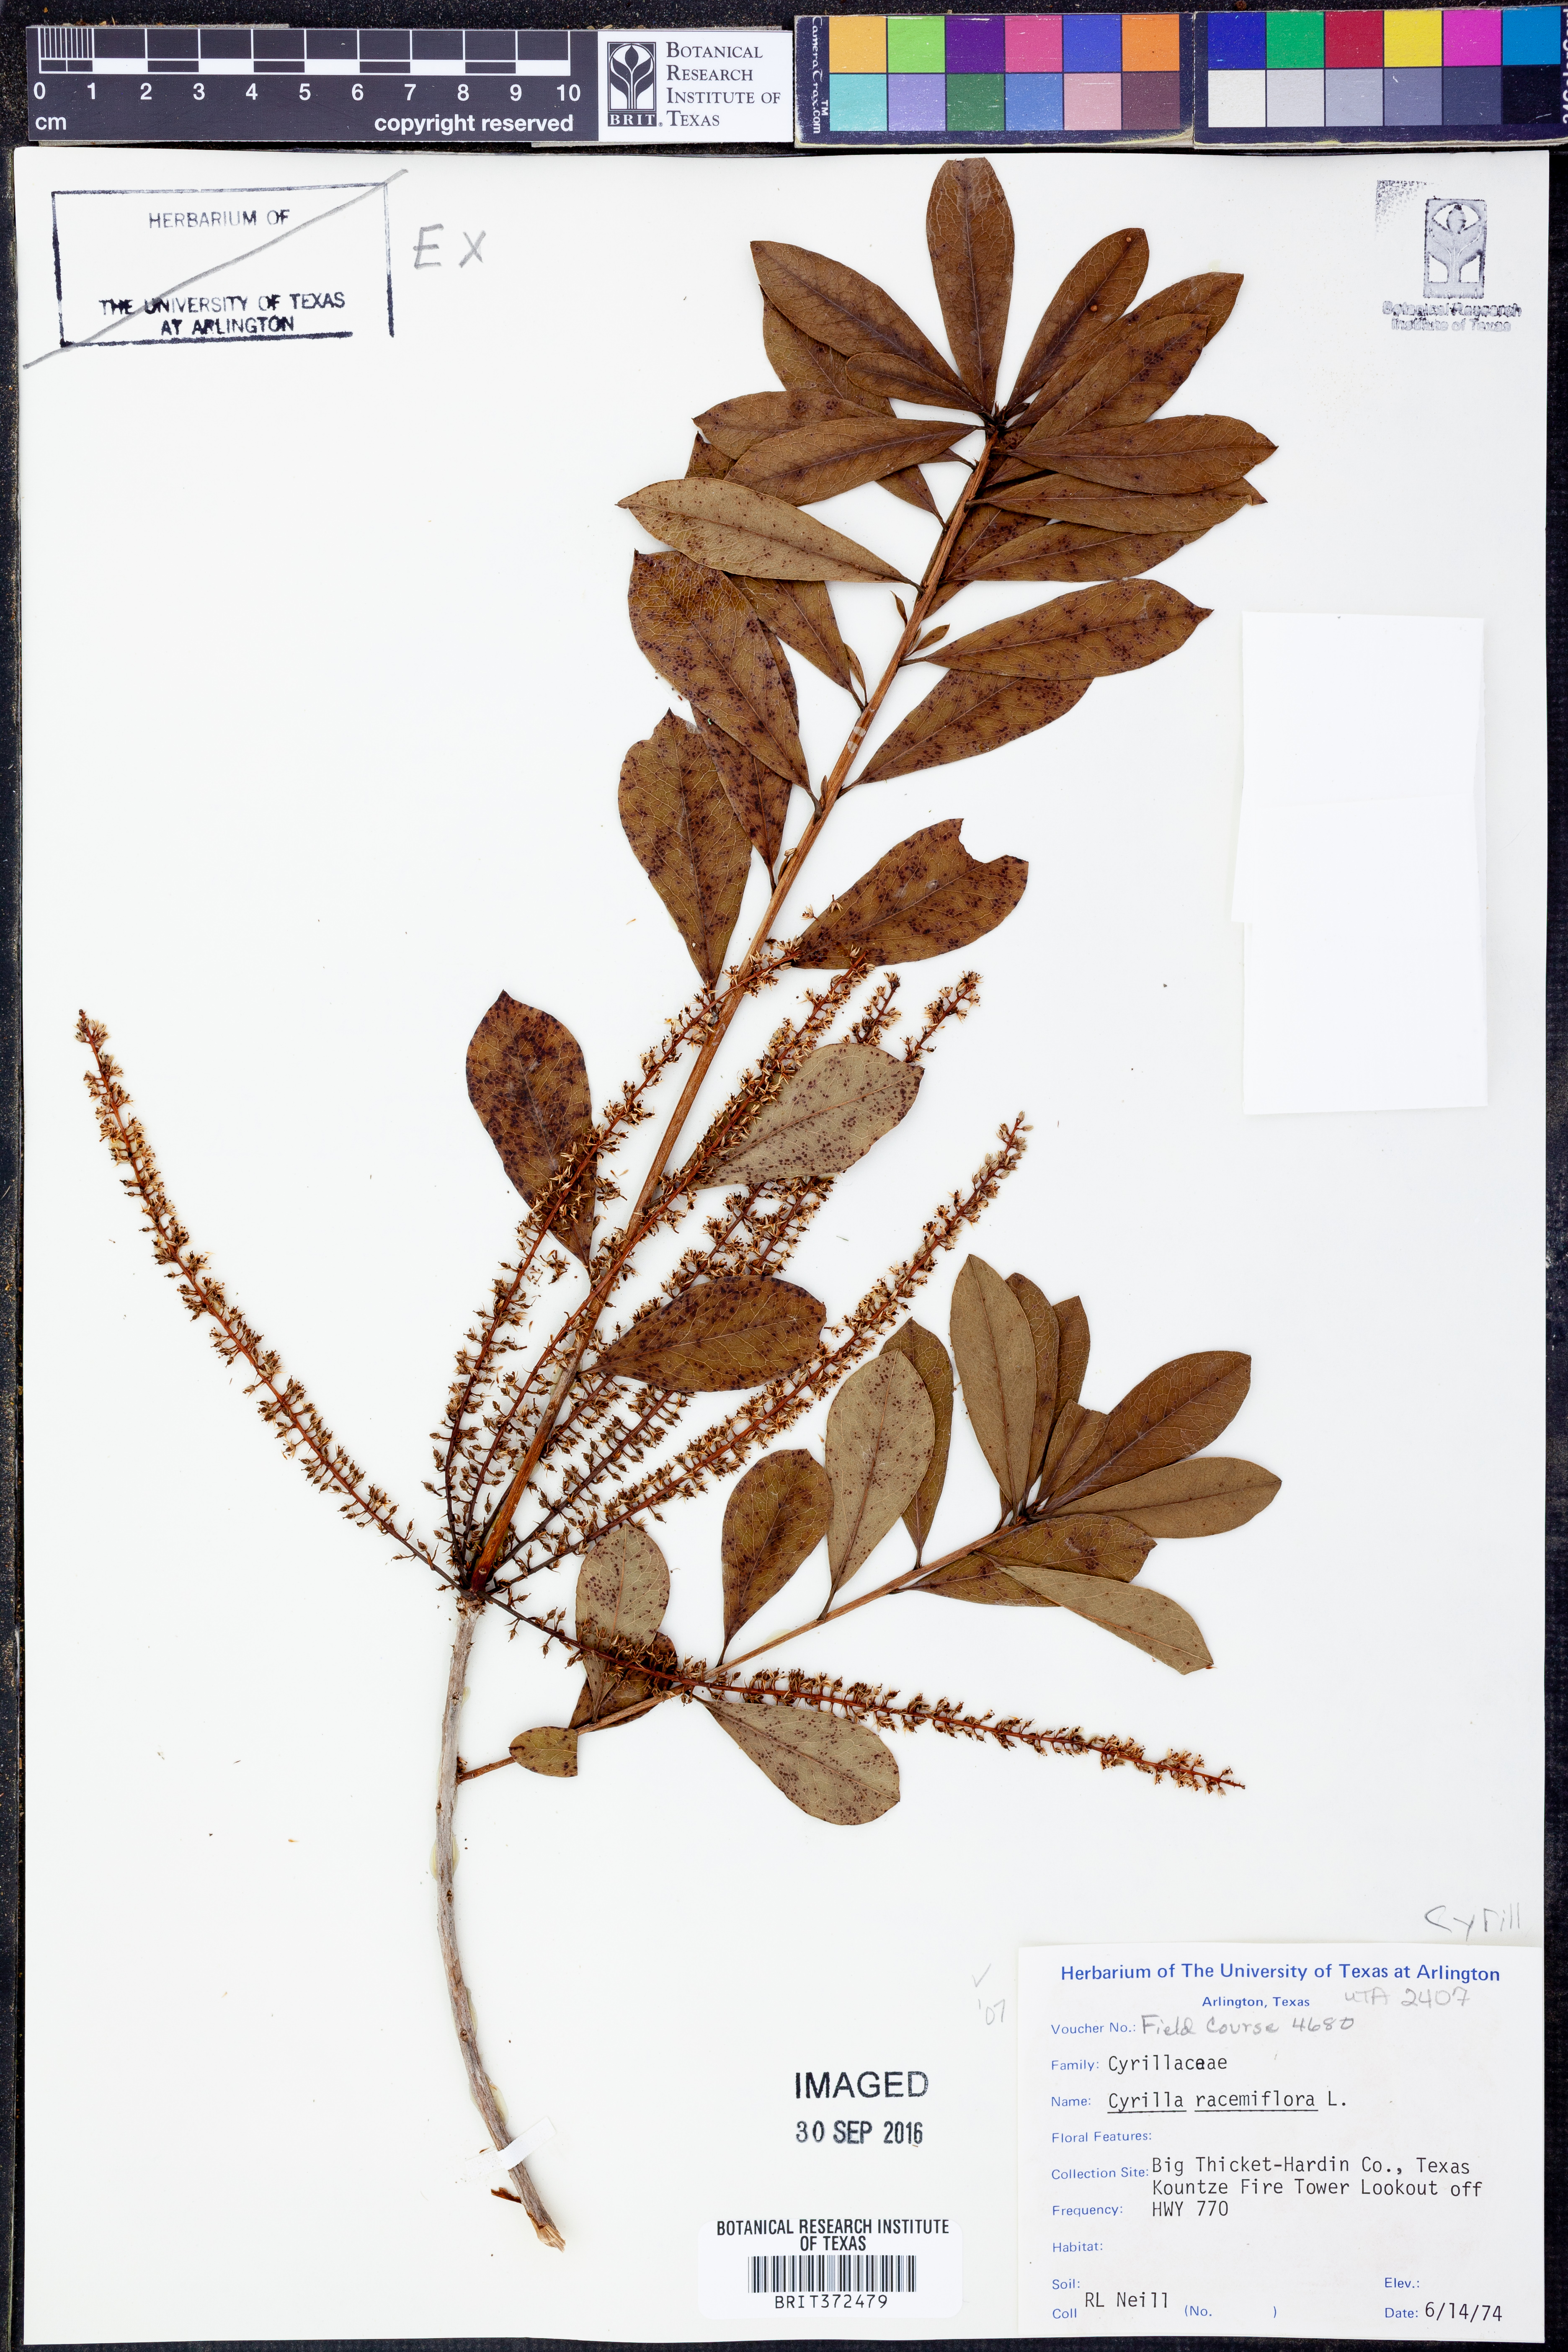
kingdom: Plantae
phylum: Tracheophyta
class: Magnoliopsida
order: Ericales
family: Cyrillaceae
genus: Cyrilla
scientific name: Cyrilla racemiflora
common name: Black titi
